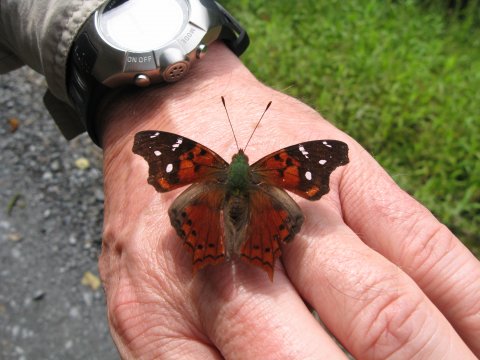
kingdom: Animalia
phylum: Arthropoda
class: Insecta
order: Lepidoptera
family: Nymphalidae
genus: Hypanartia
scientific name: Hypanartia
